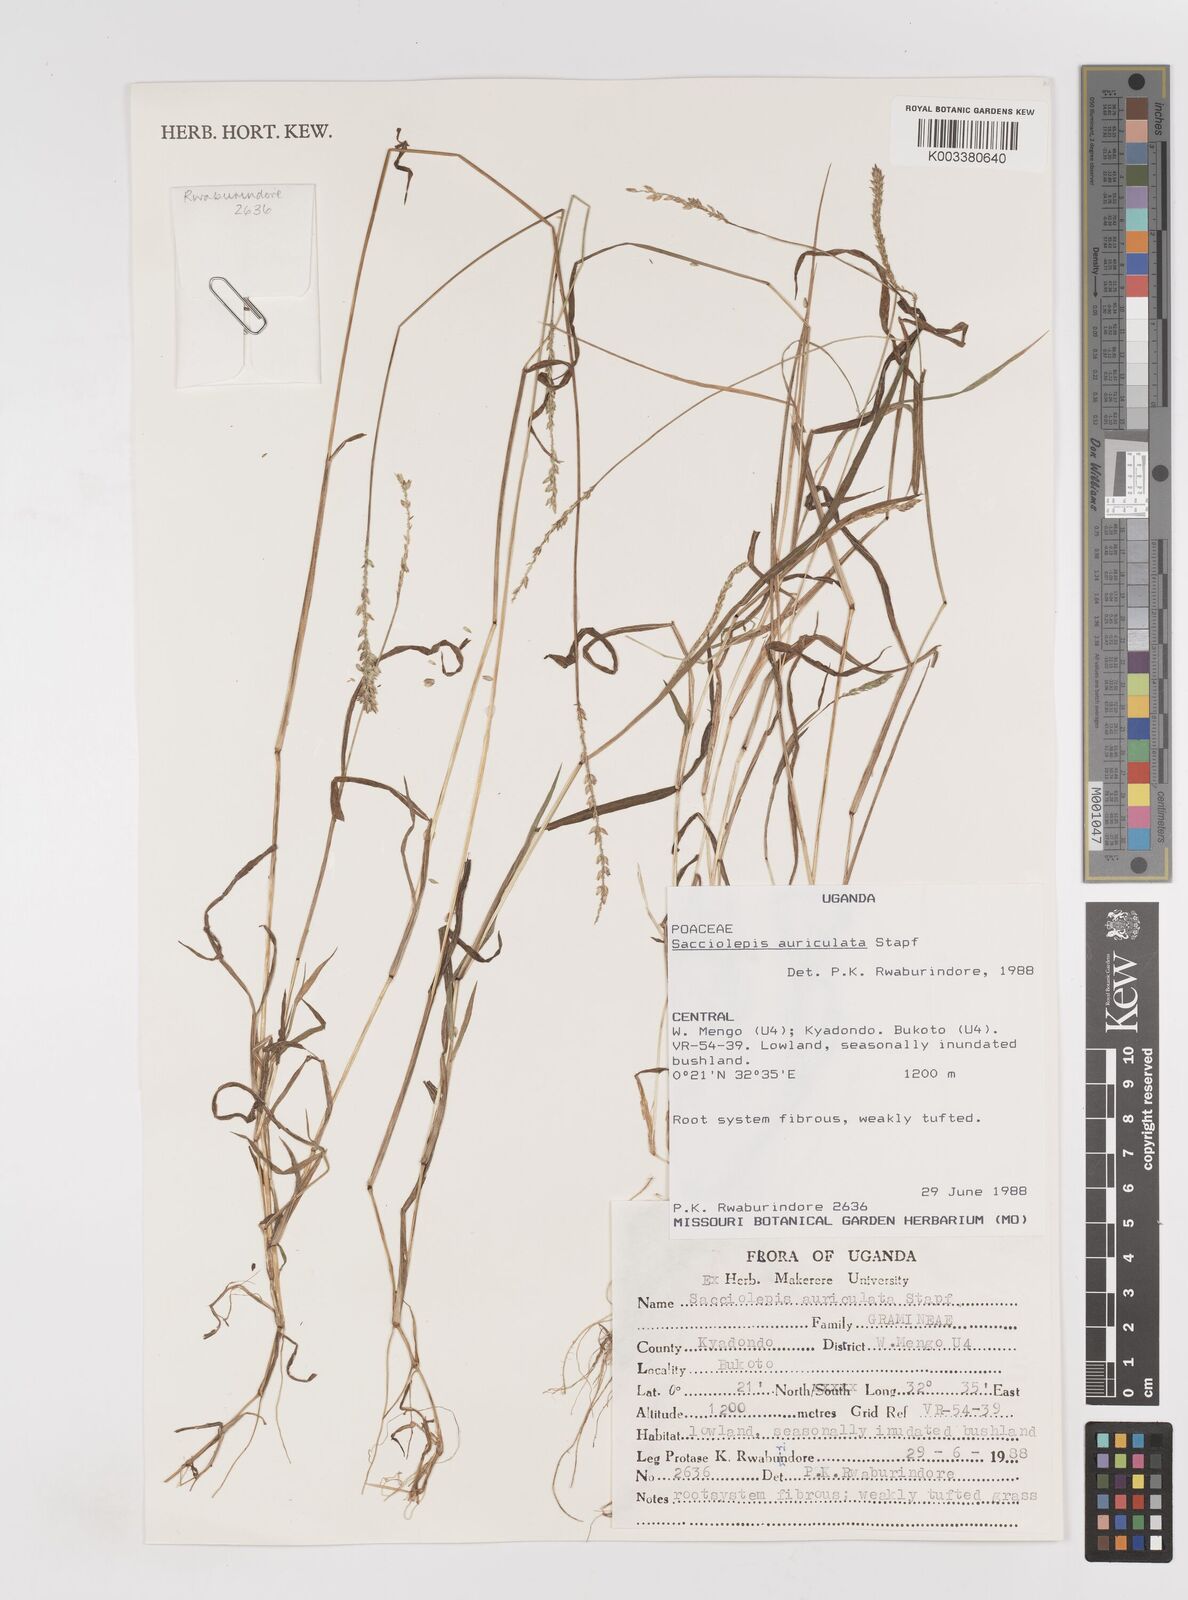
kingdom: Plantae
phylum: Tracheophyta
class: Liliopsida
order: Poales
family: Poaceae
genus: Sacciolepis
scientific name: Sacciolepis indica
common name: Glenwoodgrass
